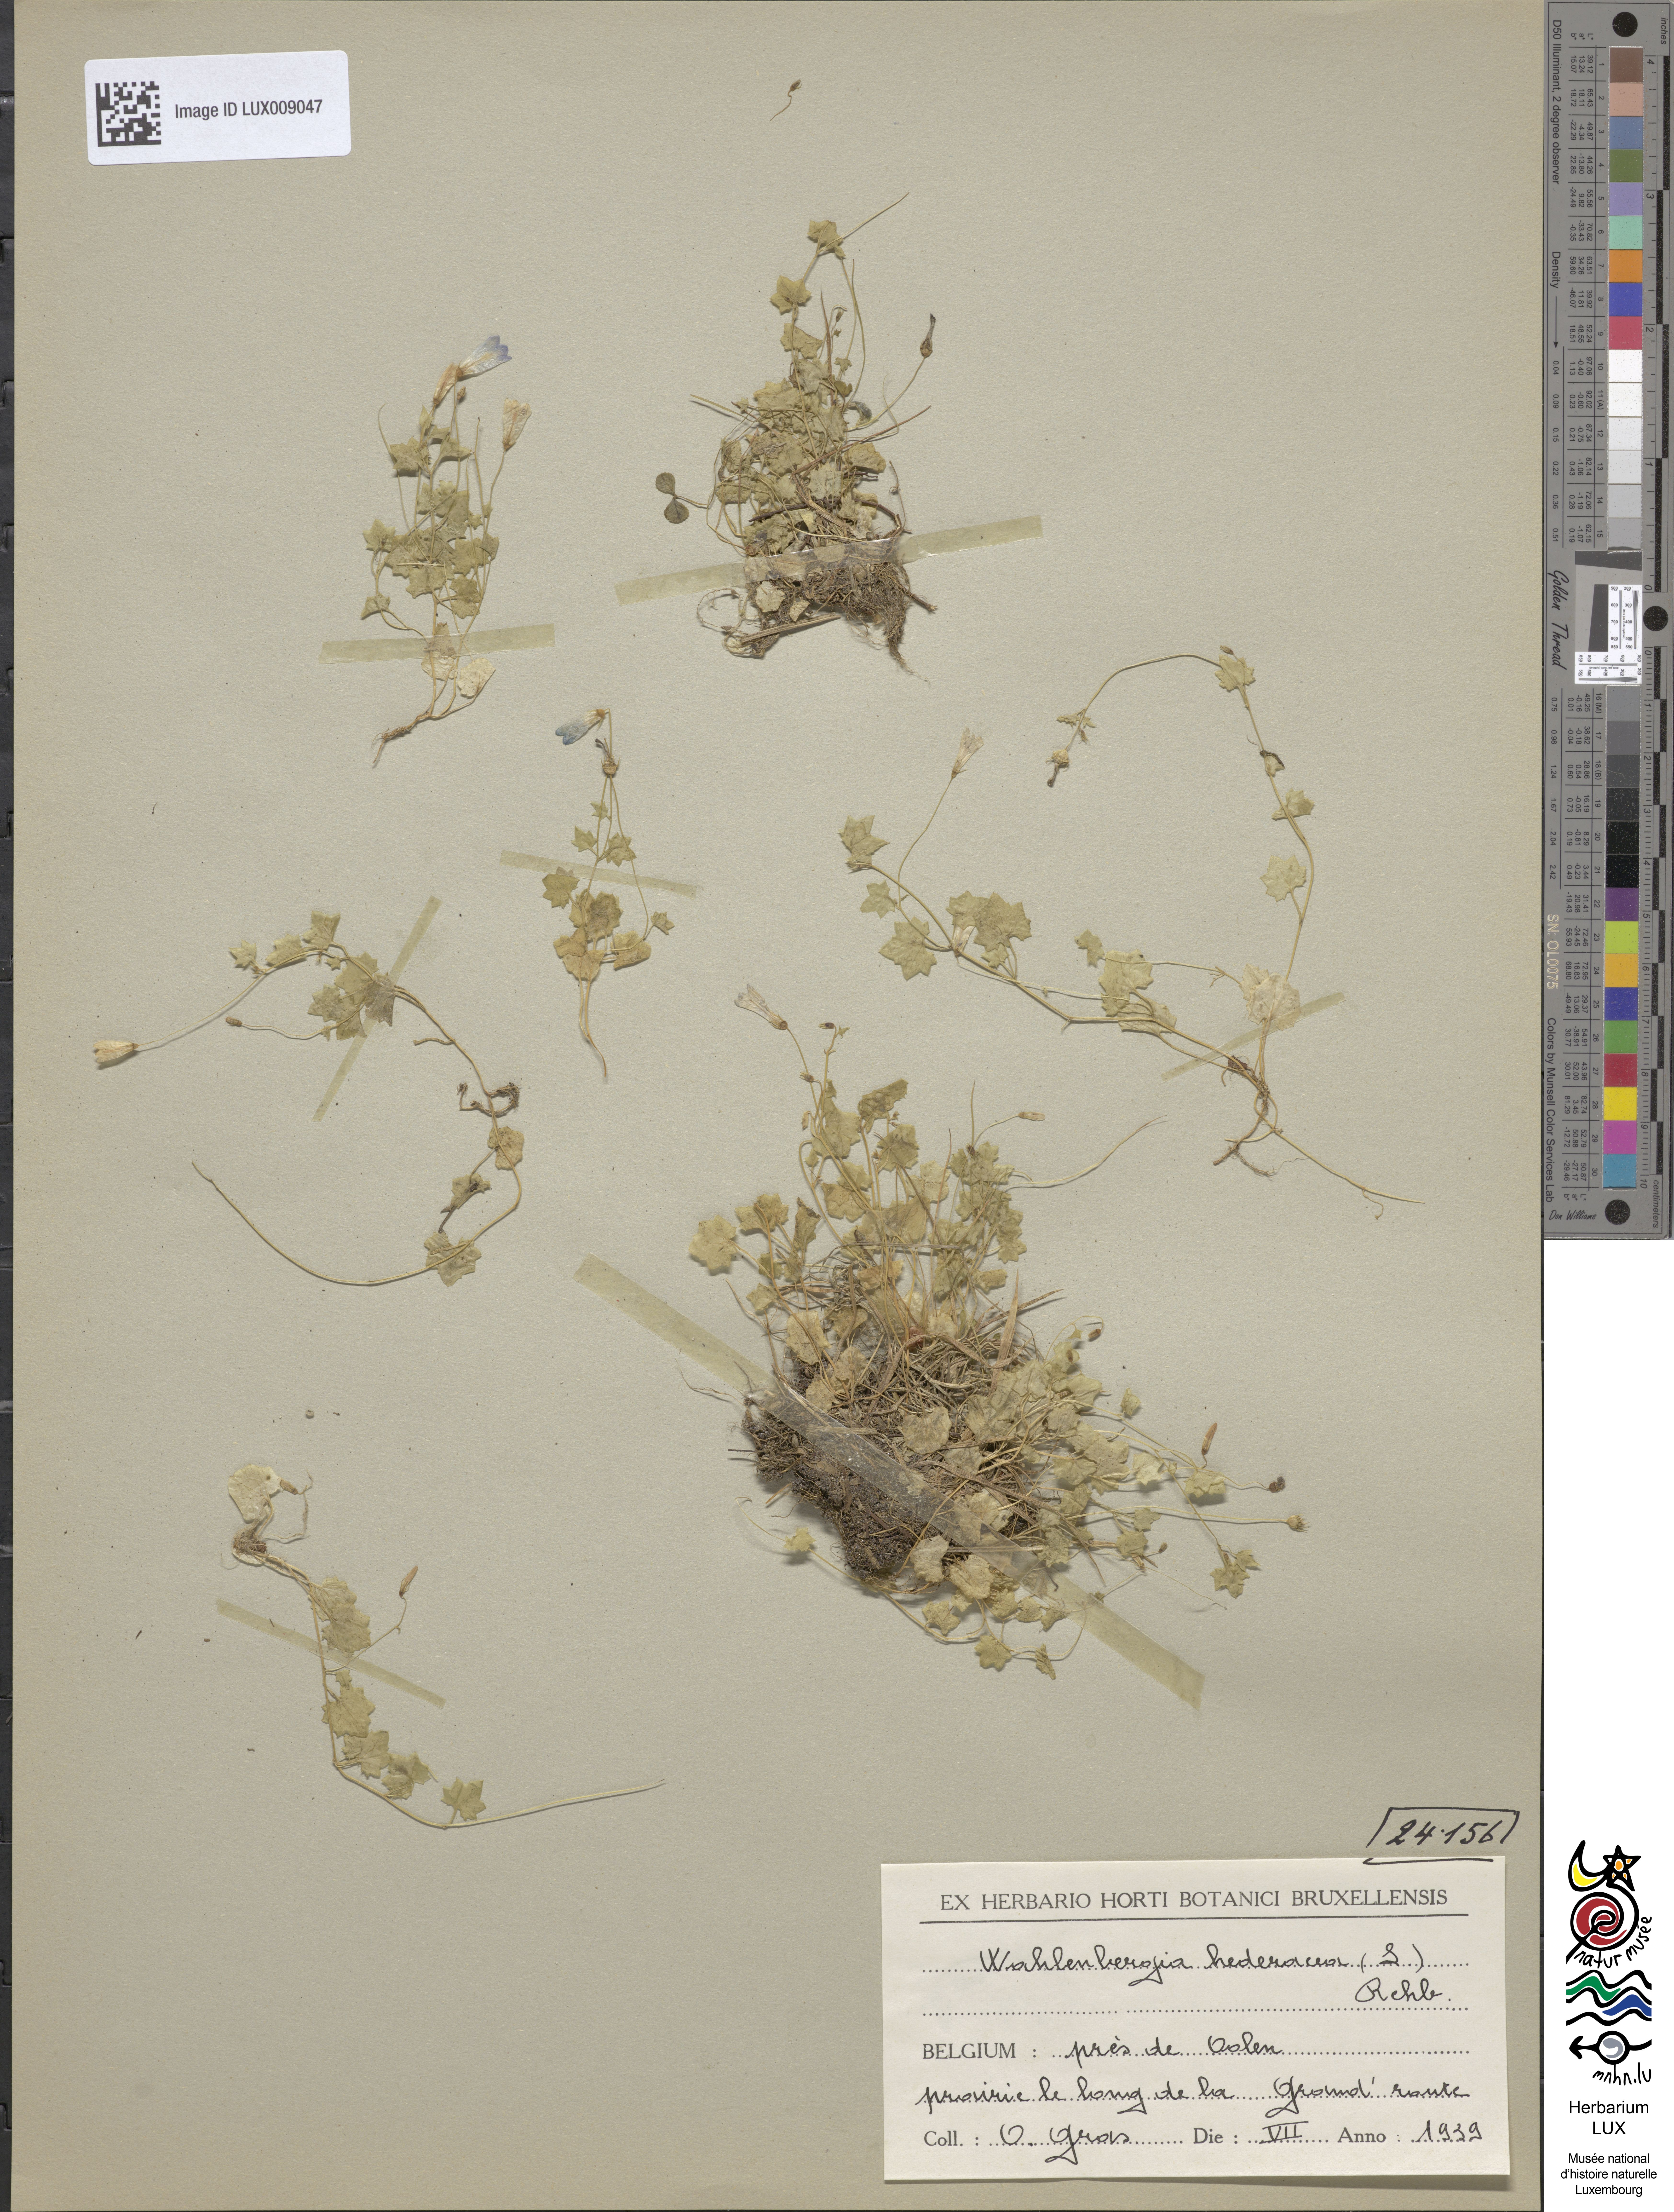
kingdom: Plantae
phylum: Tracheophyta
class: Magnoliopsida
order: Asterales
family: Campanulaceae
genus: Hesperocodon
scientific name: Hesperocodon hederaceus
